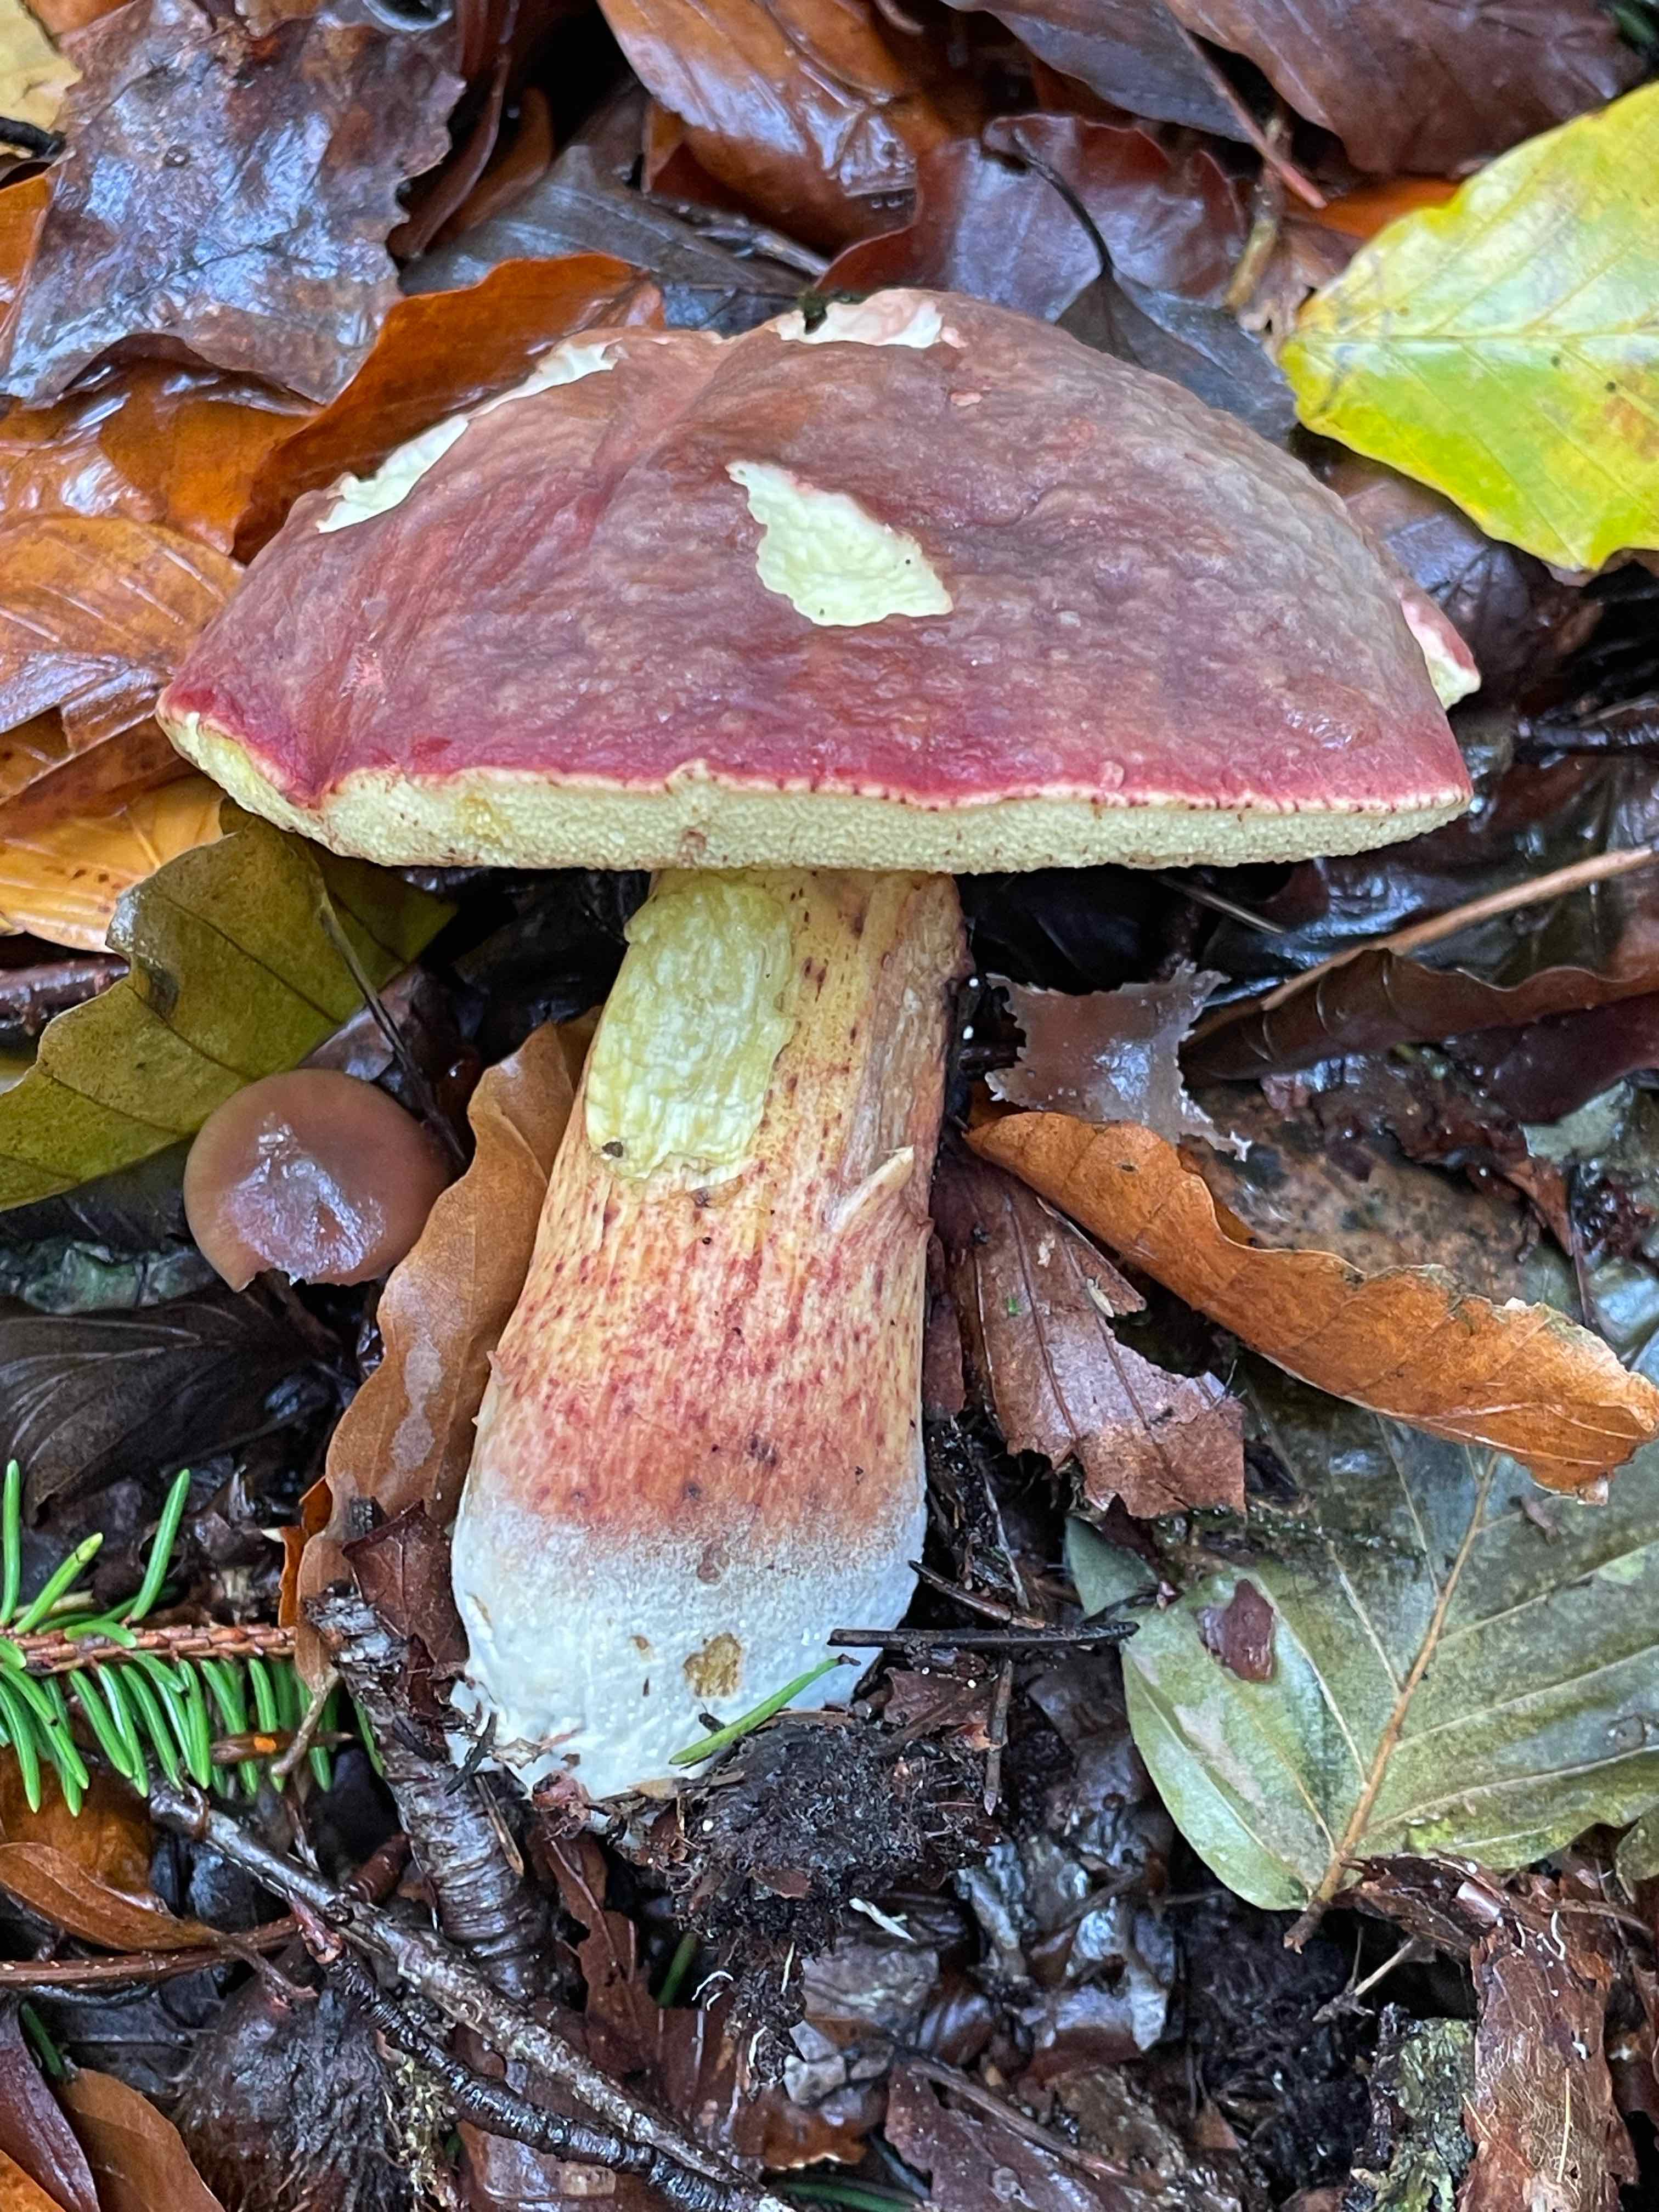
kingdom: Fungi
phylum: Basidiomycota
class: Agaricomycetes
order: Boletales
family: Boletaceae
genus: Xerocomellus
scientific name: Xerocomellus pruinatus
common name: dugget rørhat
